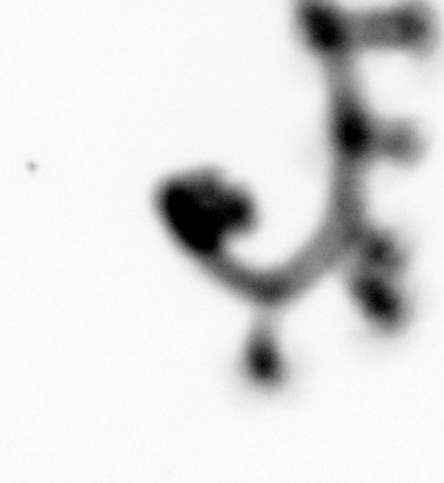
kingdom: Animalia
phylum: Cnidaria
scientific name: Cnidaria
